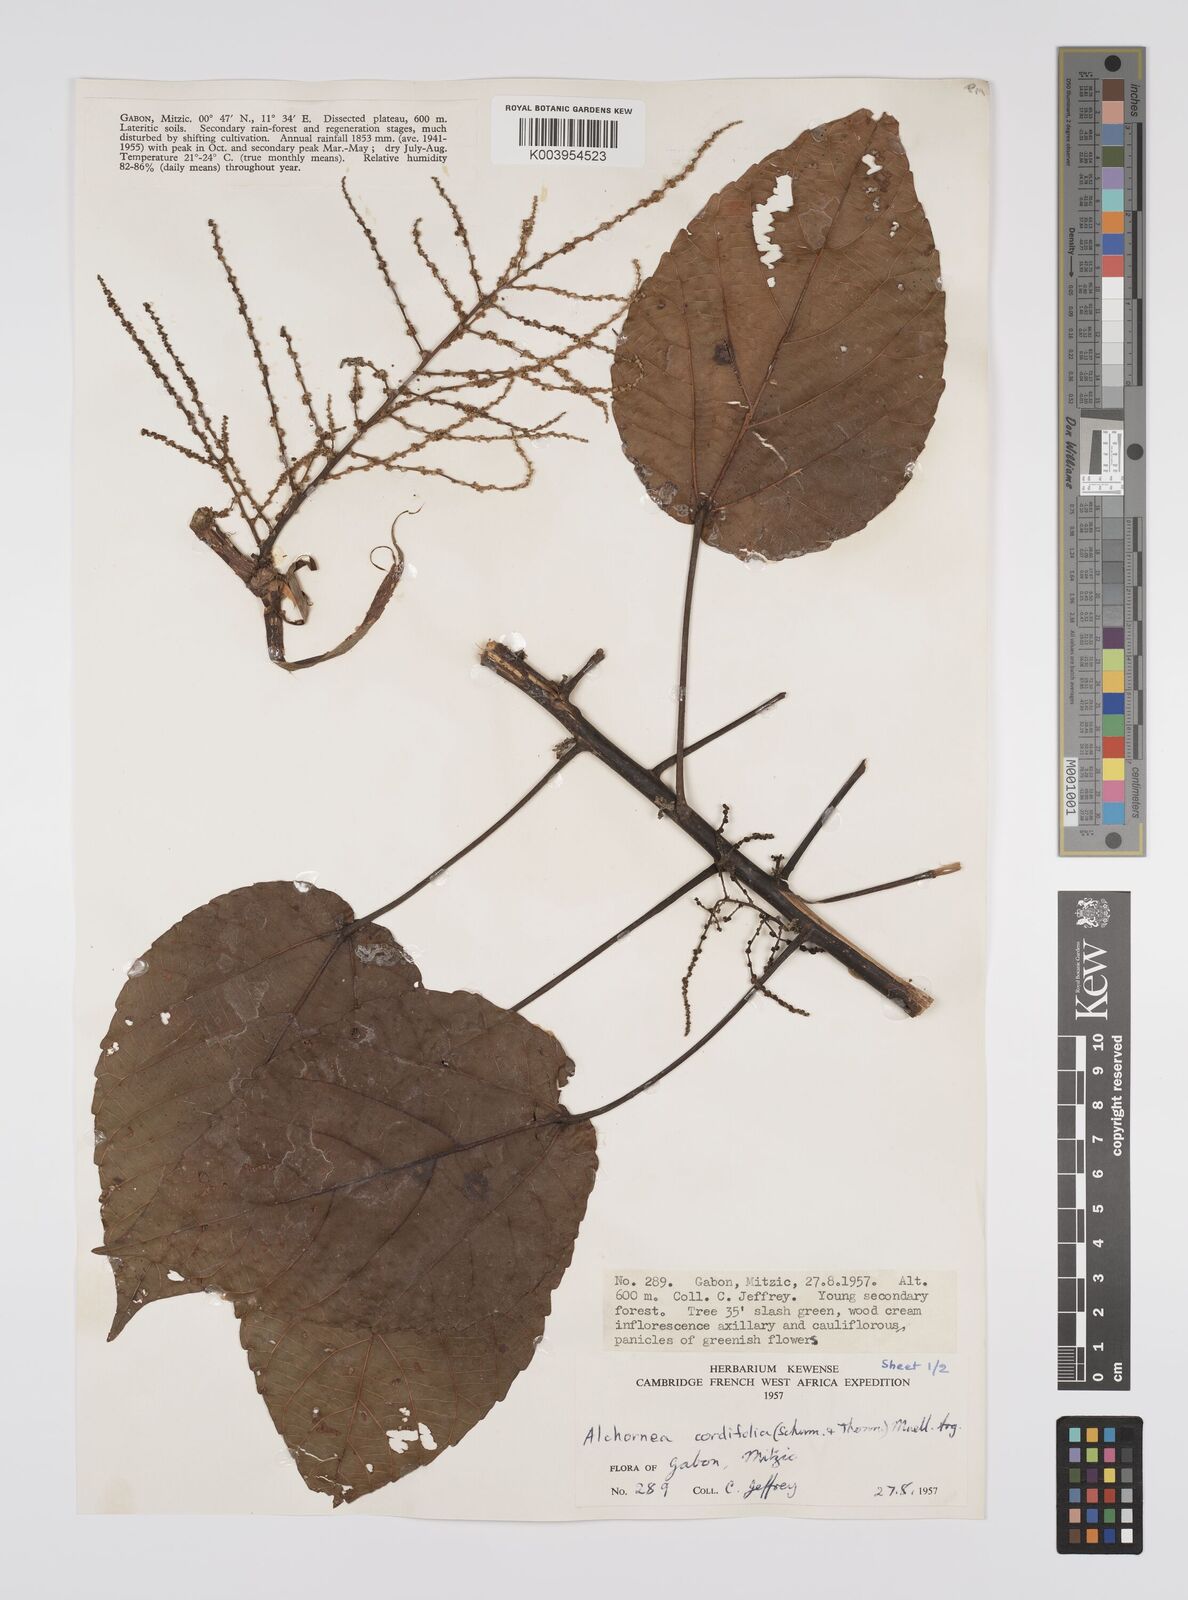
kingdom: Plantae
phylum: Tracheophyta
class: Magnoliopsida
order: Malpighiales
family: Euphorbiaceae
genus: Alchornea
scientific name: Alchornea cordifolia
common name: Christmasbush
